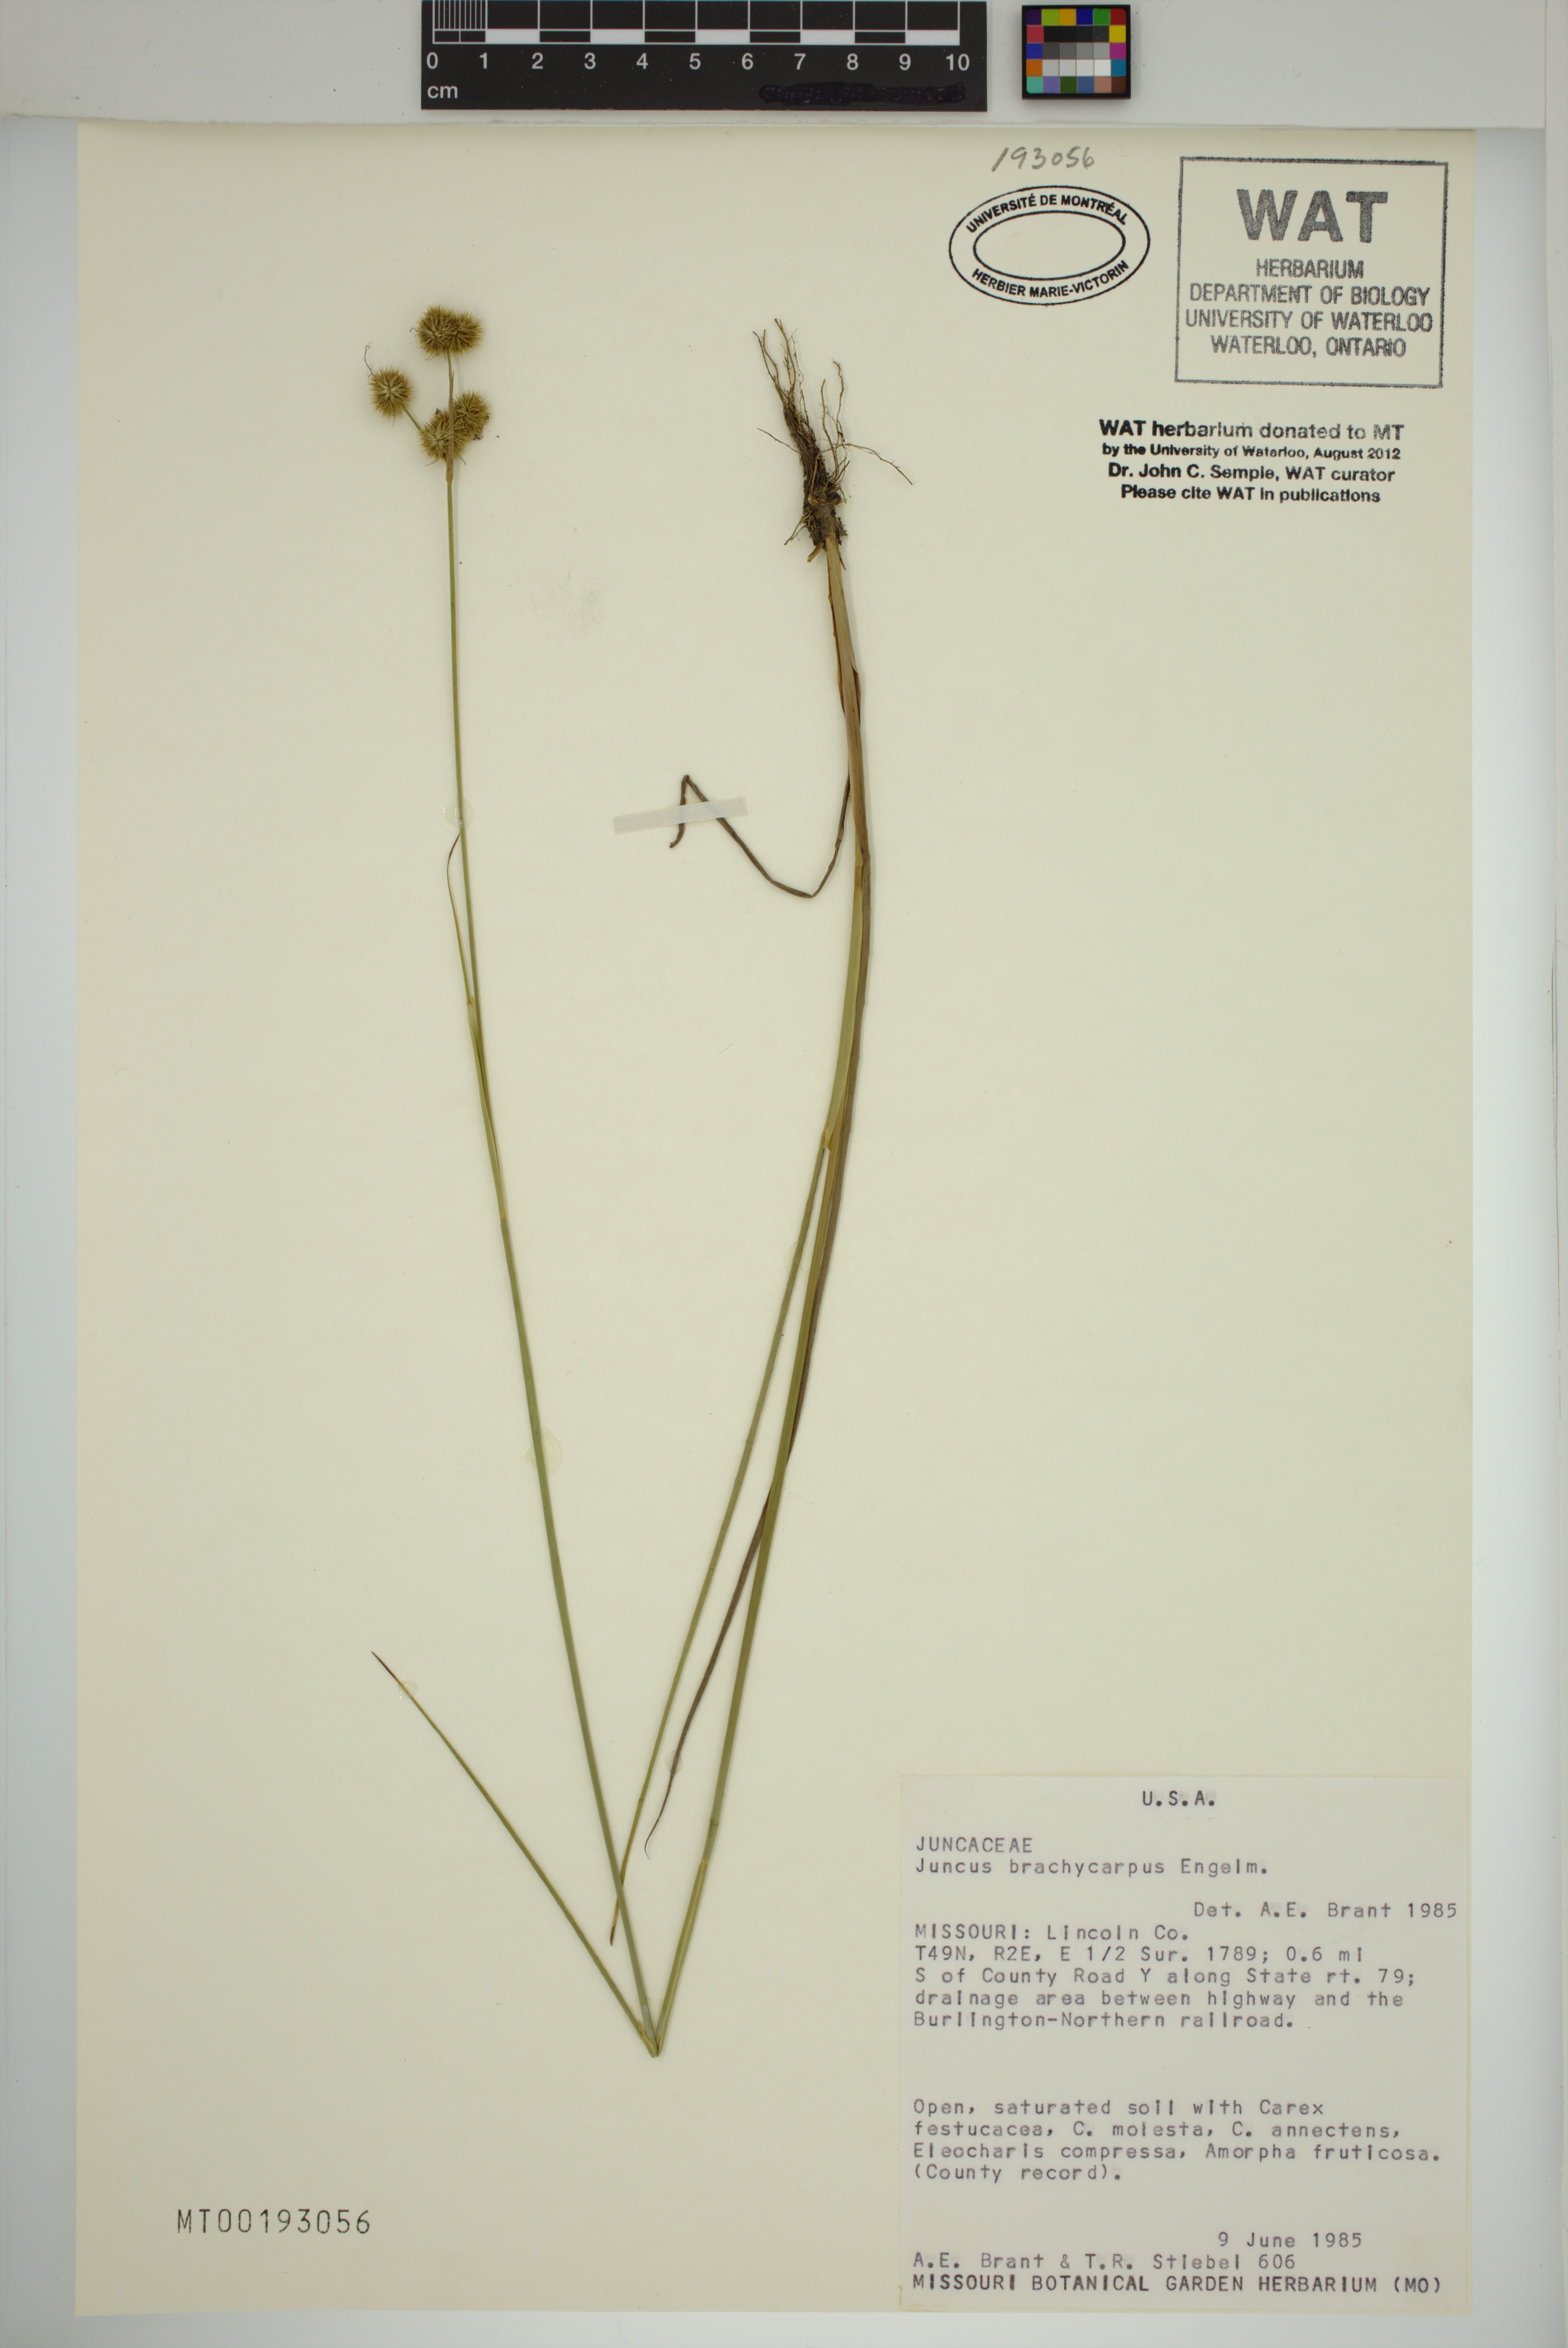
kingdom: Plantae
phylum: Tracheophyta
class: Liliopsida
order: Poales
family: Juncaceae
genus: Juncus
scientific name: Juncus brachycarpus
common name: Shore rush
